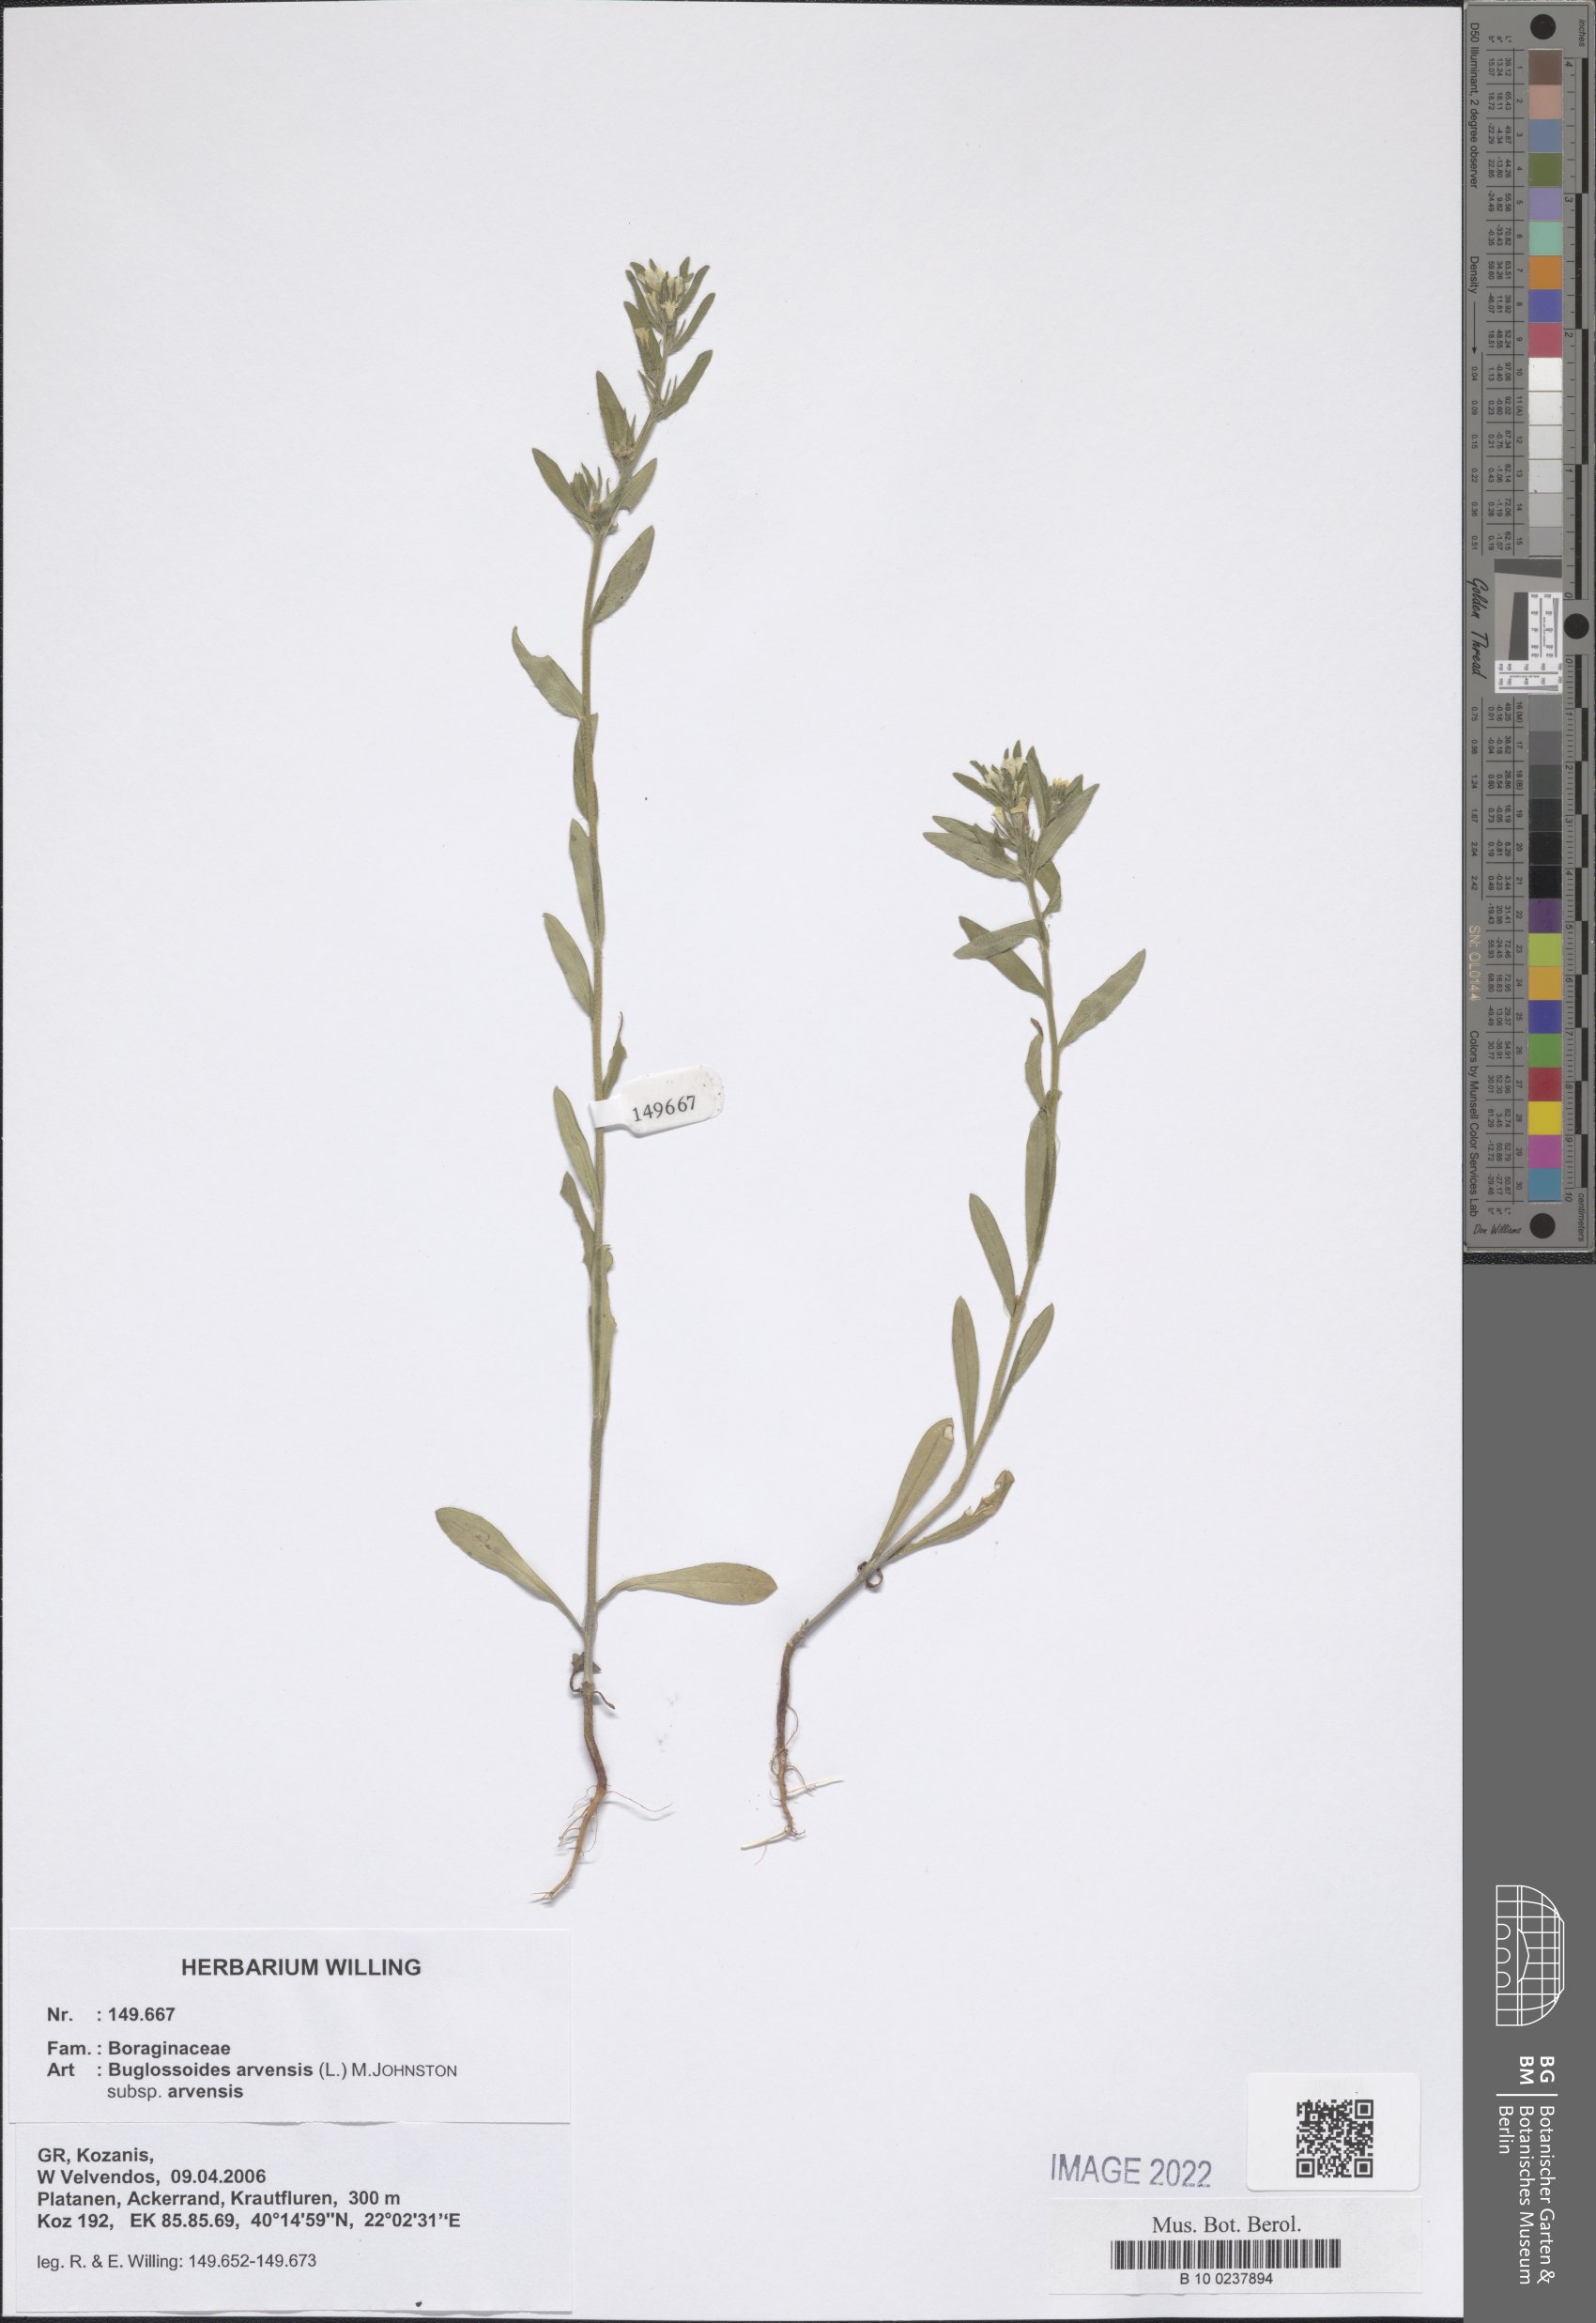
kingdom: Plantae
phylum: Tracheophyta
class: Magnoliopsida
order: Boraginales
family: Boraginaceae
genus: Buglossoides
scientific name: Buglossoides arvensis
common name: Corn gromwell
